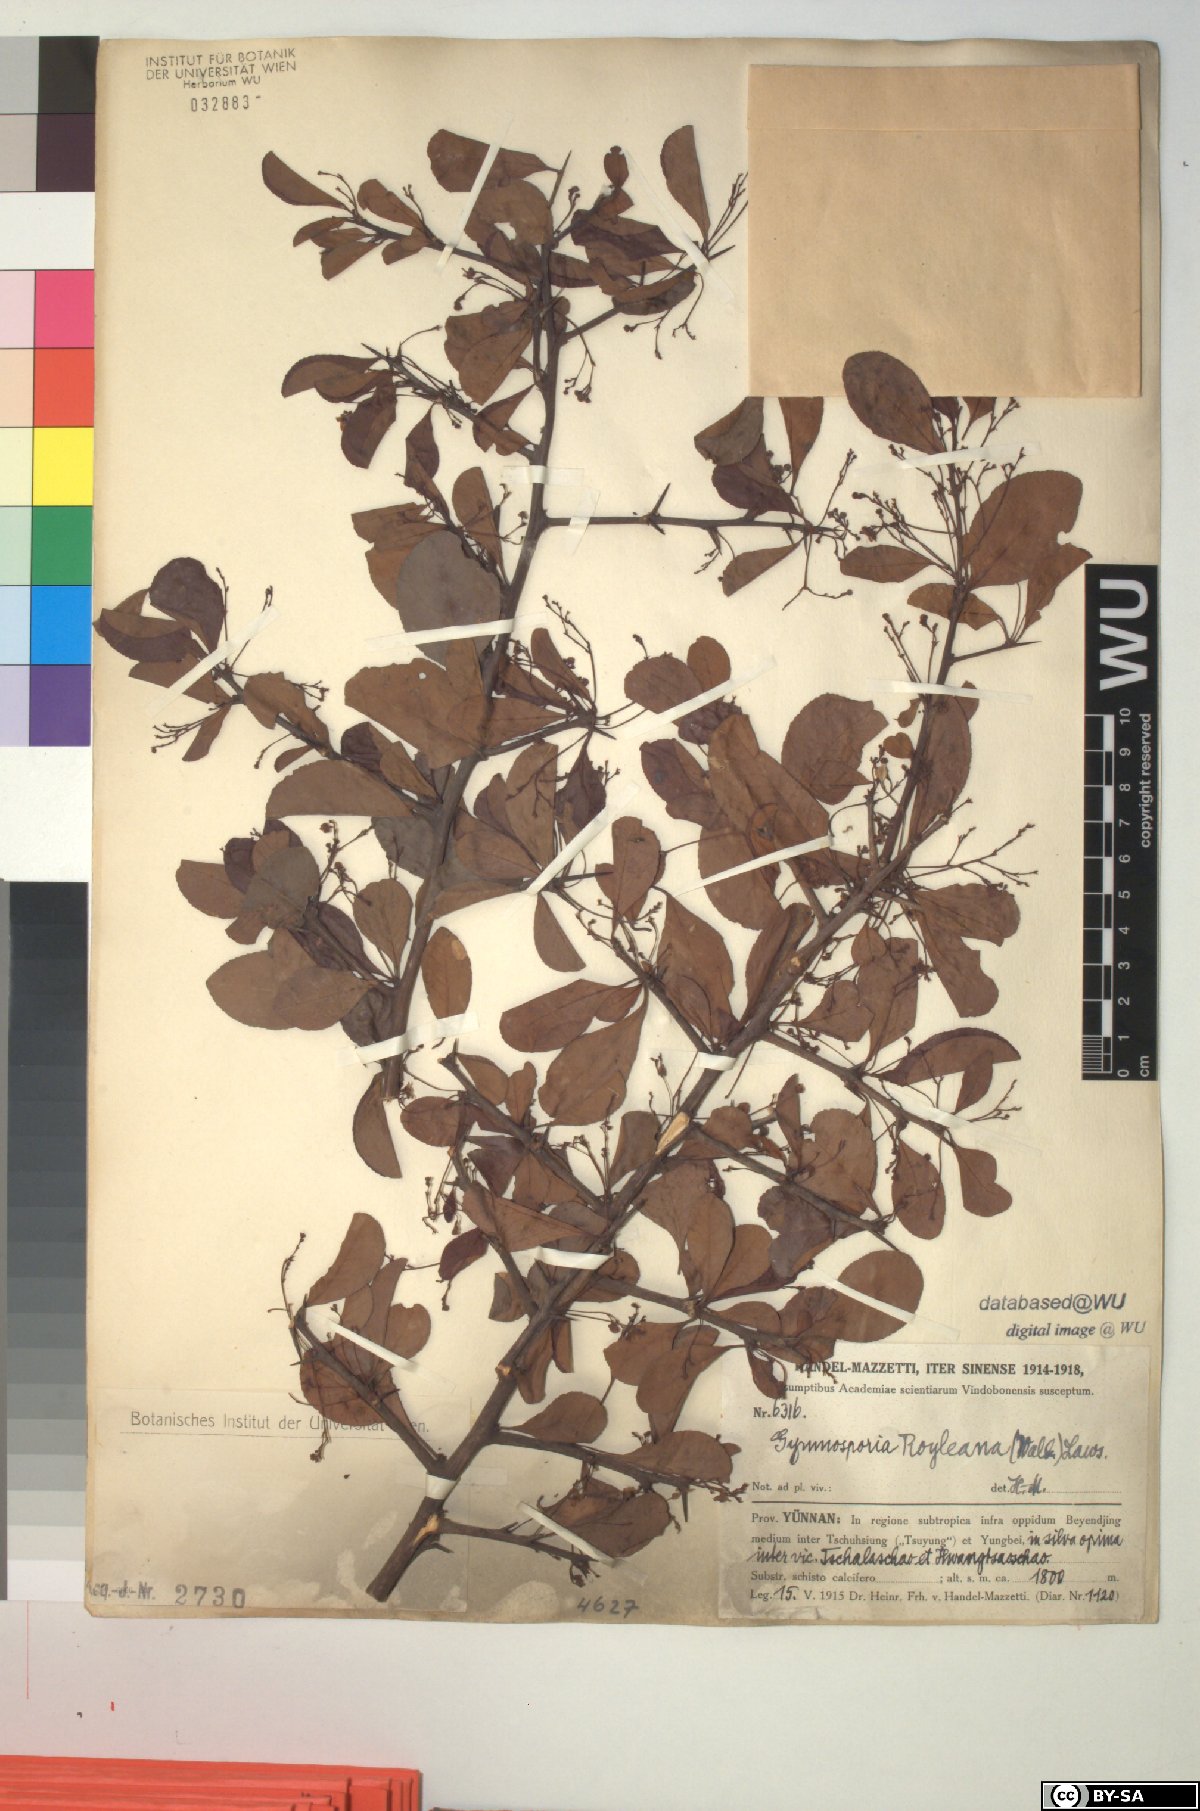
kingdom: Plantae
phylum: Tracheophyta
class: Magnoliopsida
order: Celastrales
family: Celastraceae
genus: Gymnosporia
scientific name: Gymnosporia royleana
